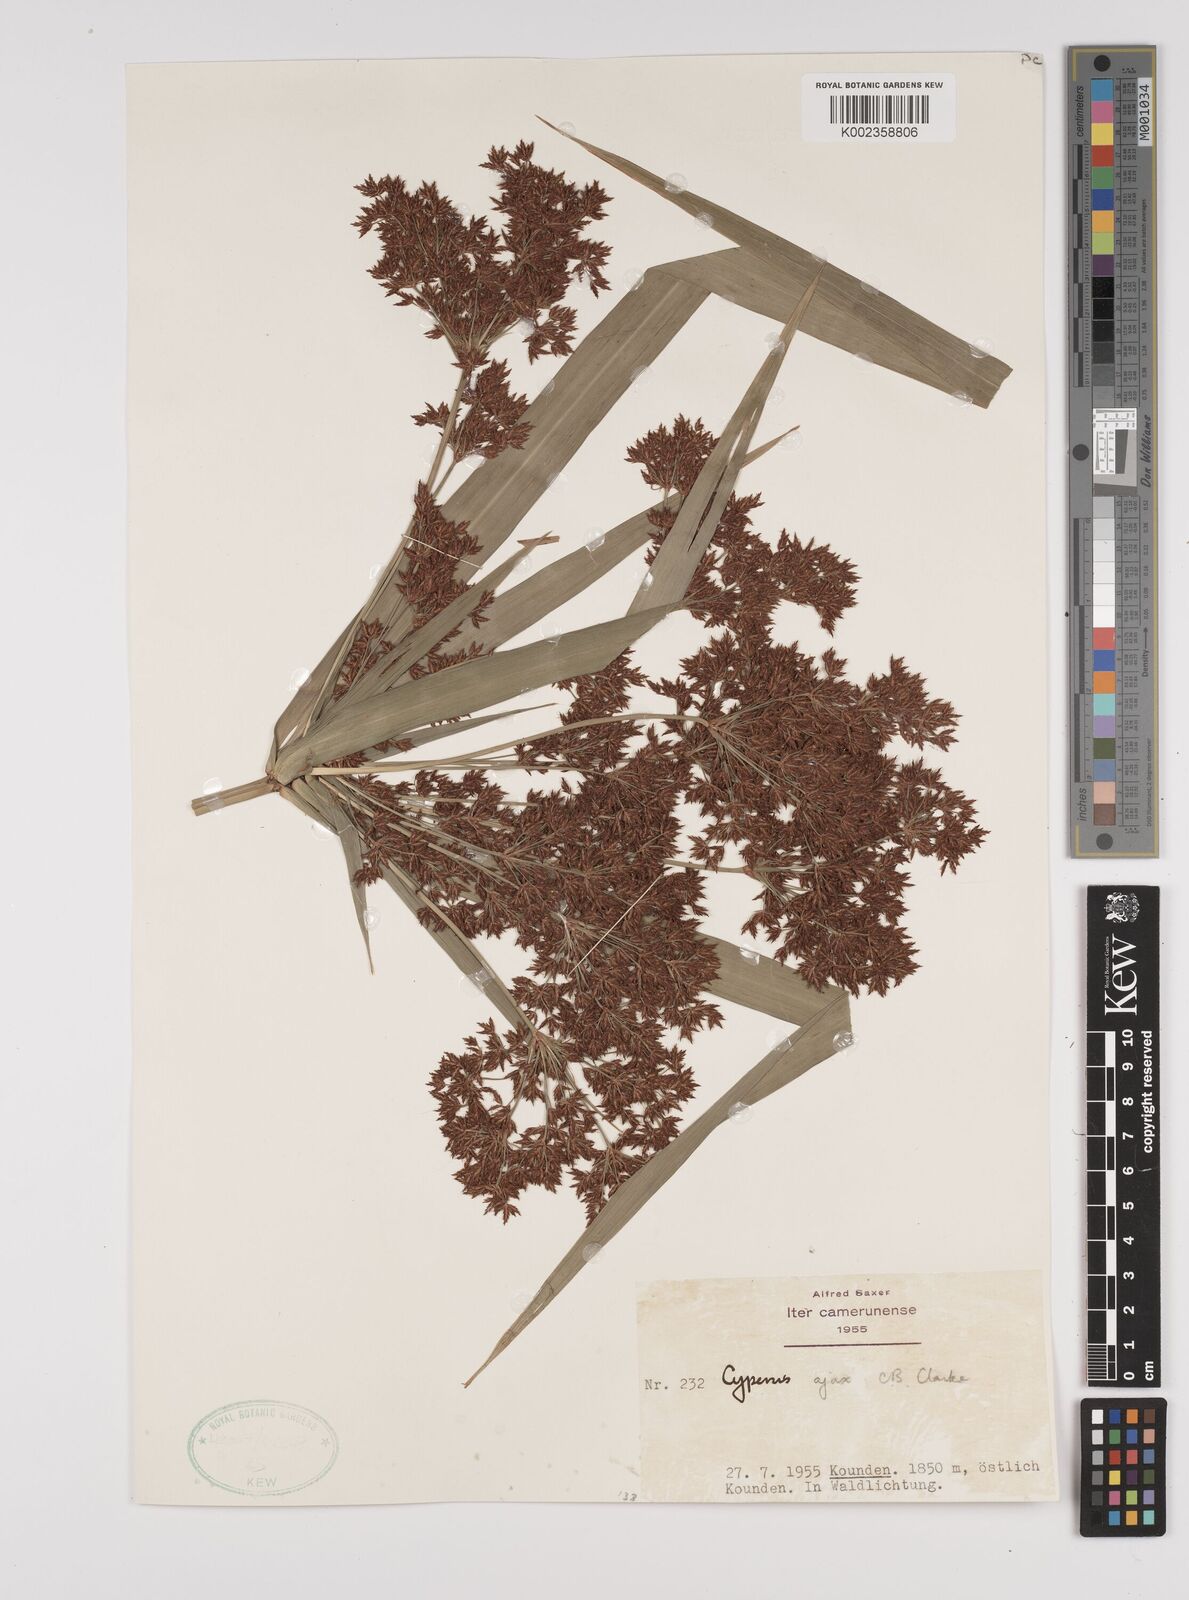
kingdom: Plantae
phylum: Tracheophyta
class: Liliopsida
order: Poales
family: Cyperaceae
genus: Cyperus
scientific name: Cyperus ajax
